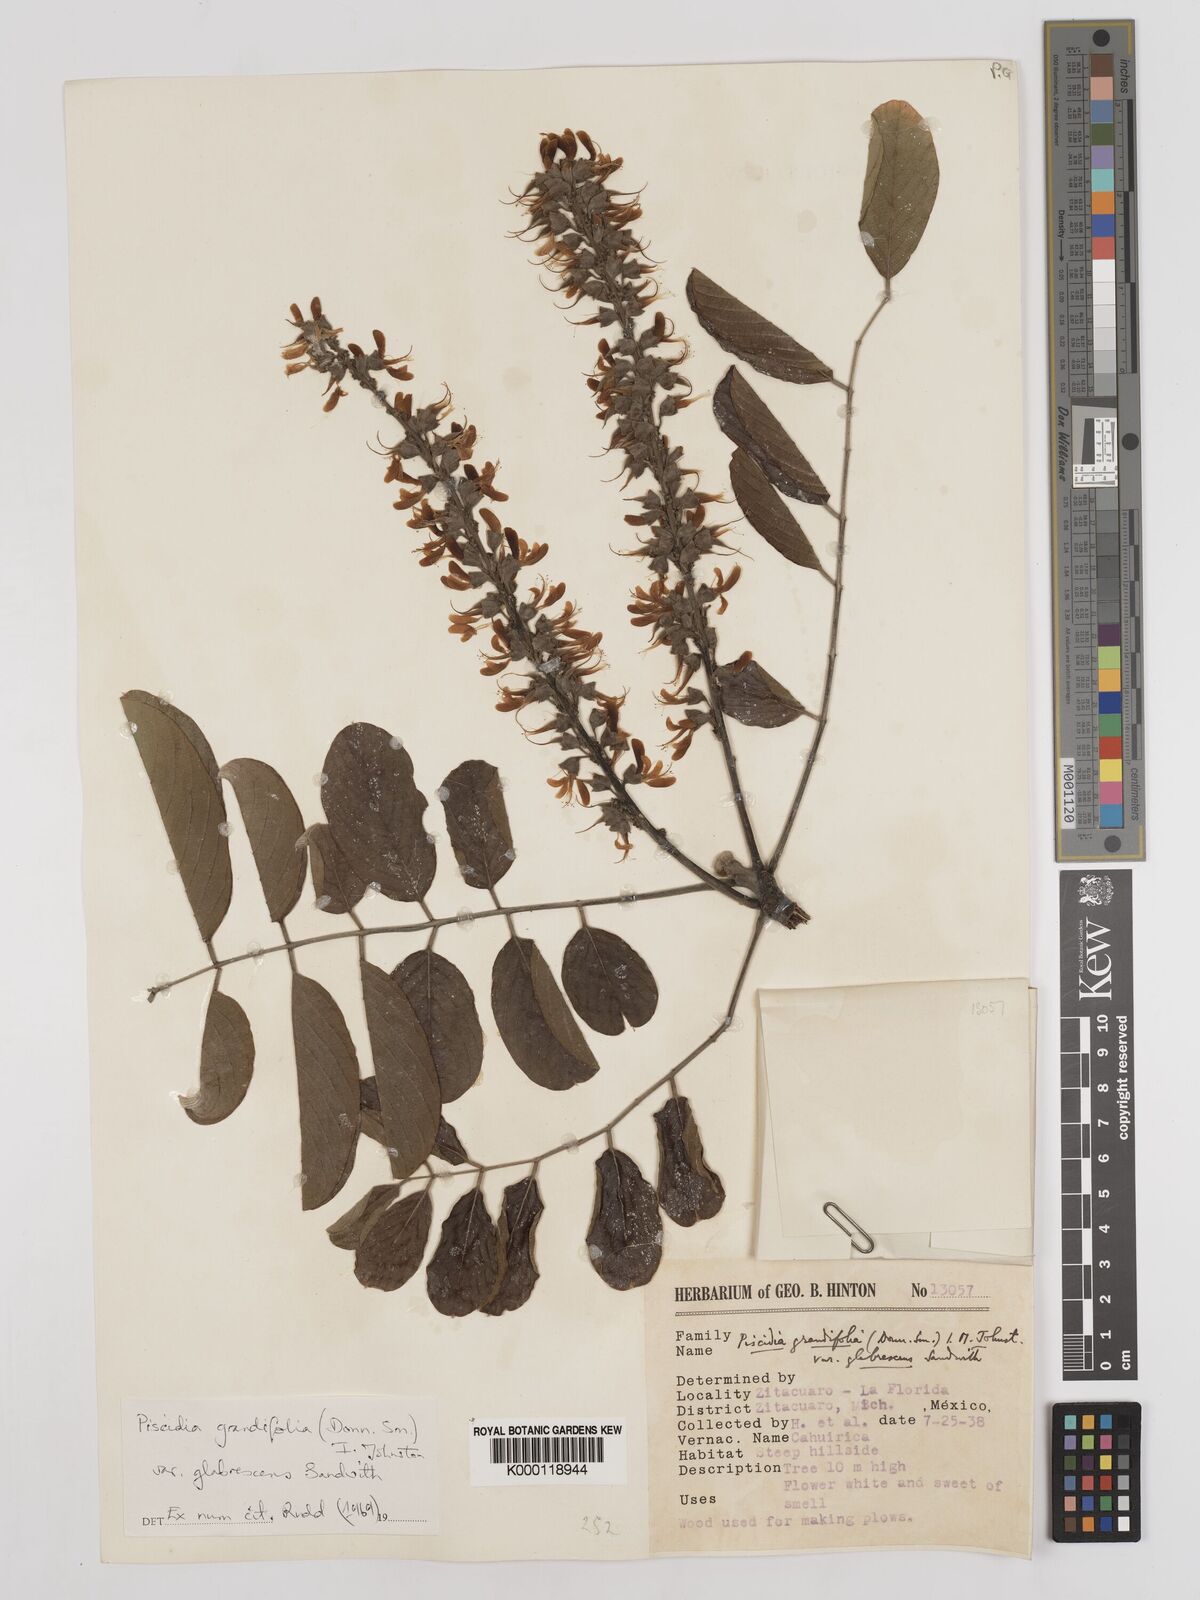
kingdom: Plantae
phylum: Tracheophyta
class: Magnoliopsida
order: Fabales
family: Fabaceae
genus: Piscidia
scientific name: Piscidia grandifolia
